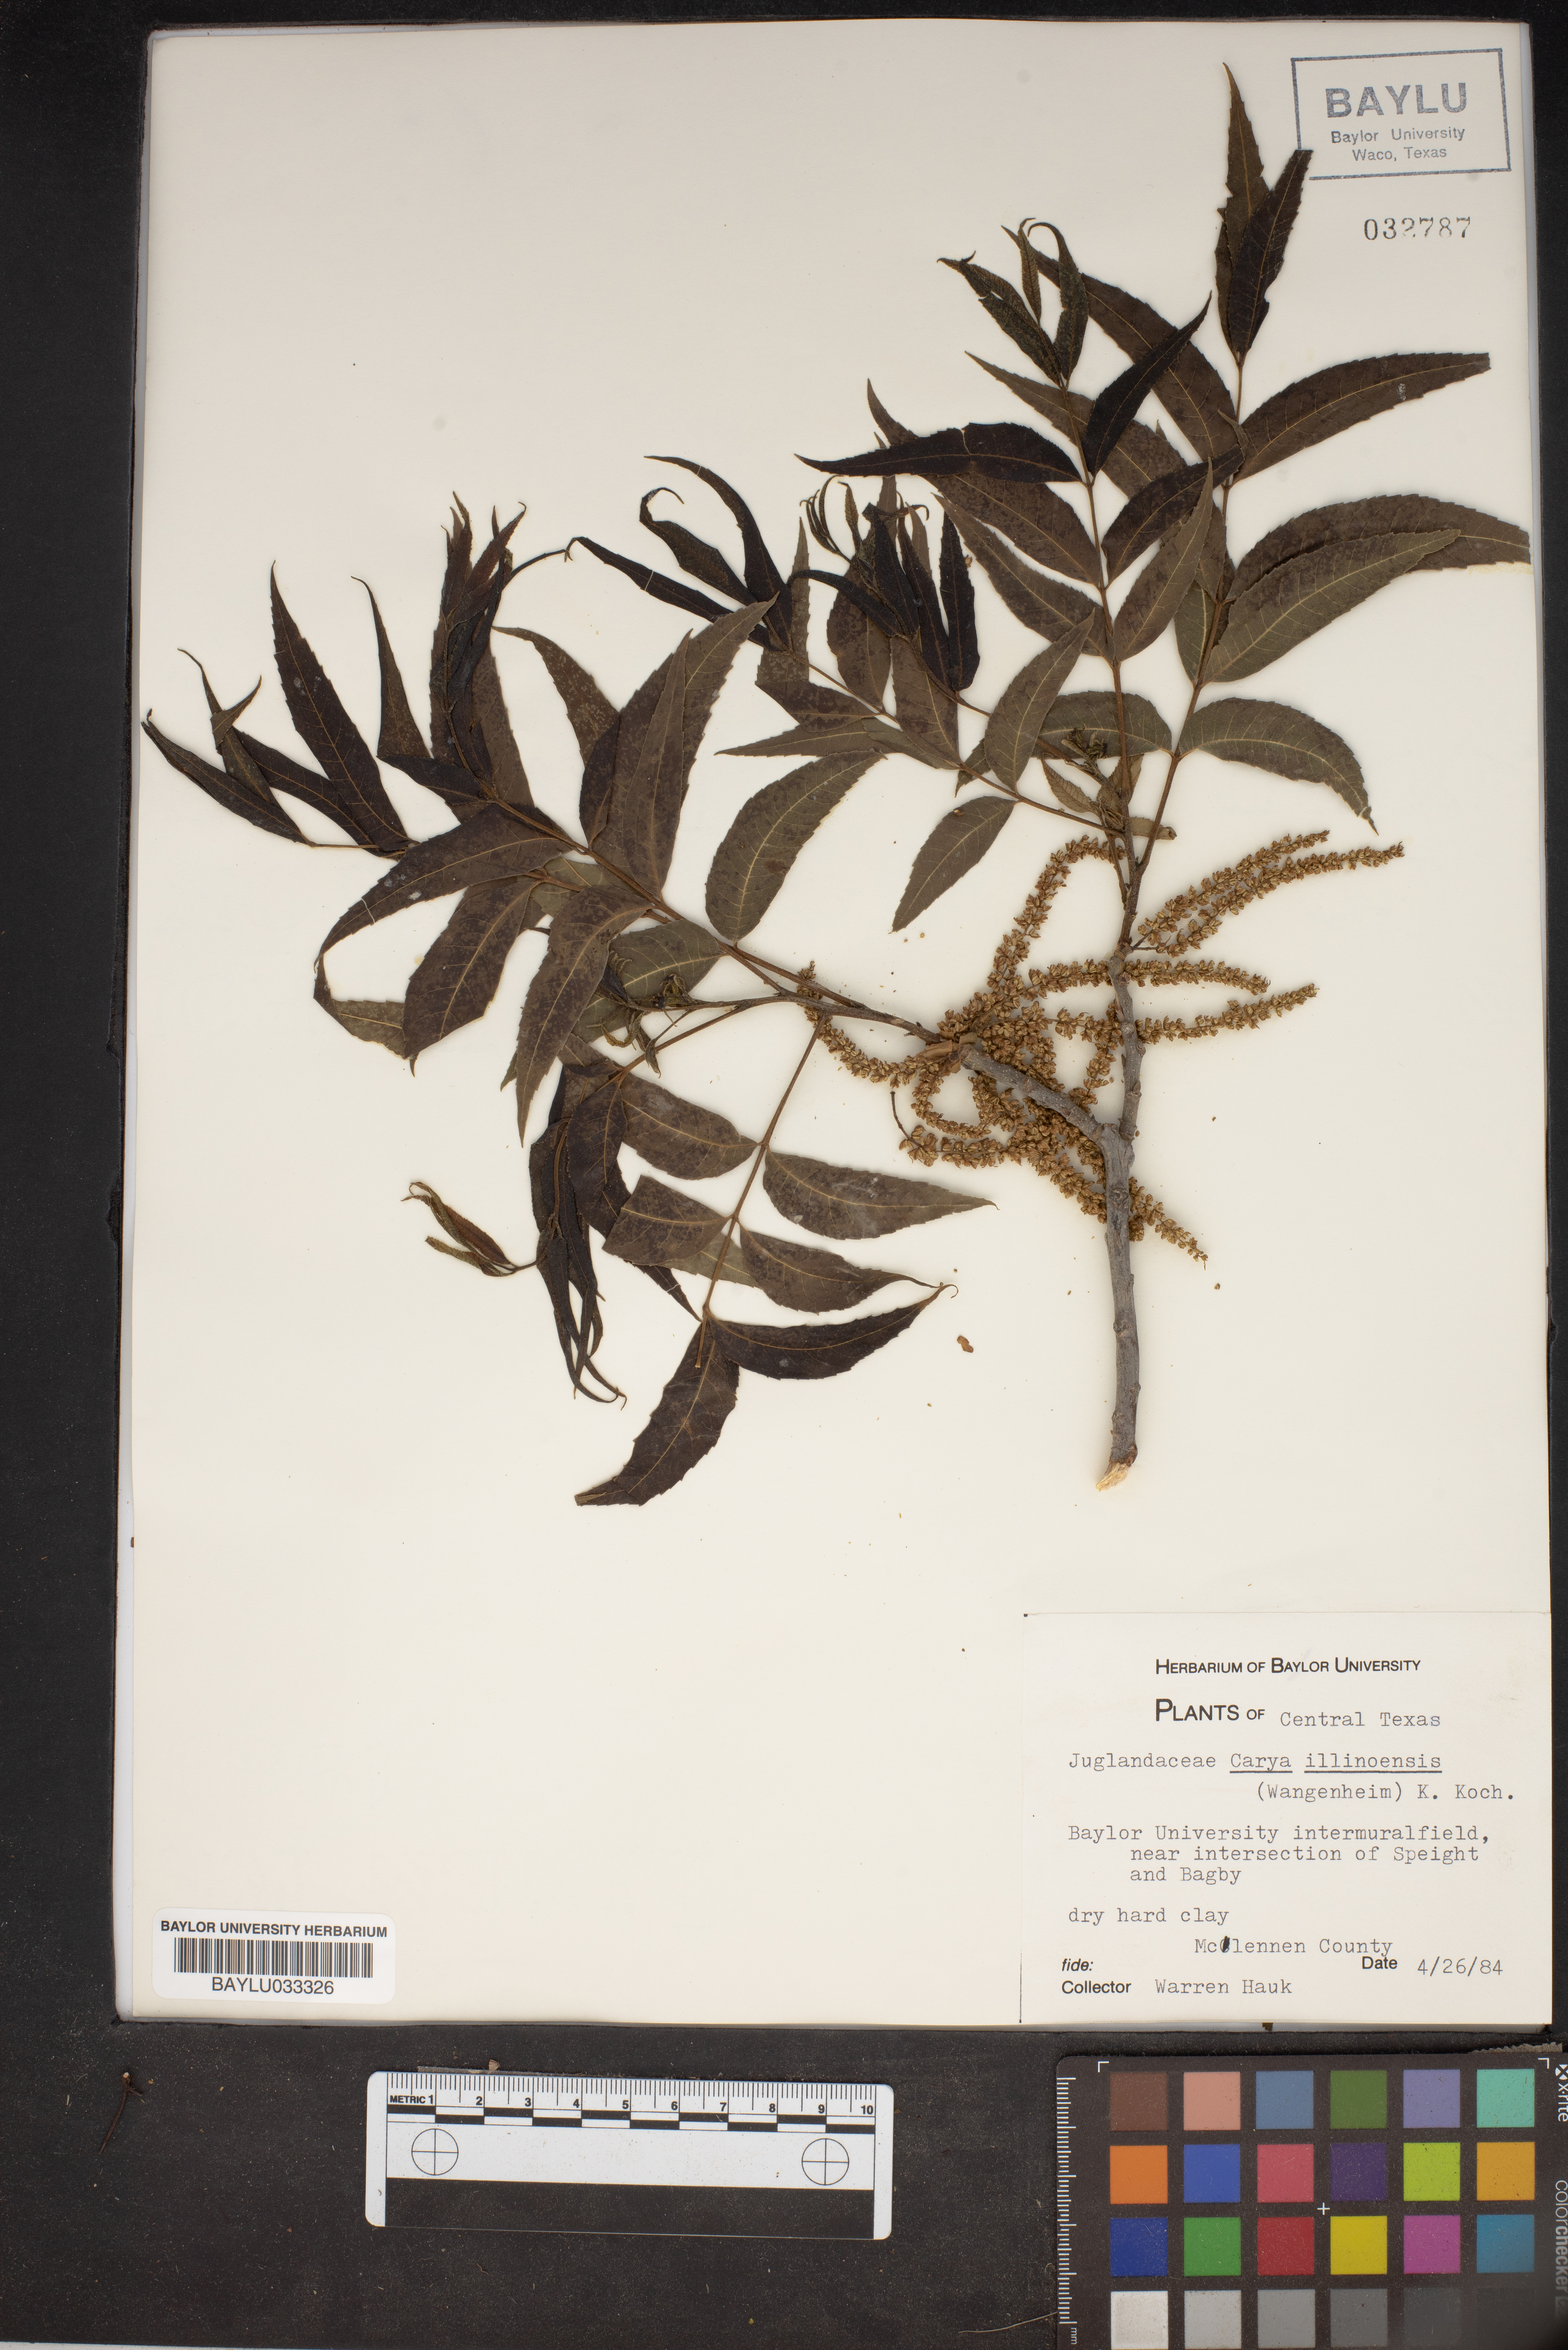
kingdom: Plantae
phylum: Tracheophyta
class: Magnoliopsida
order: Fagales
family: Juglandaceae
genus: Carya
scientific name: Carya
